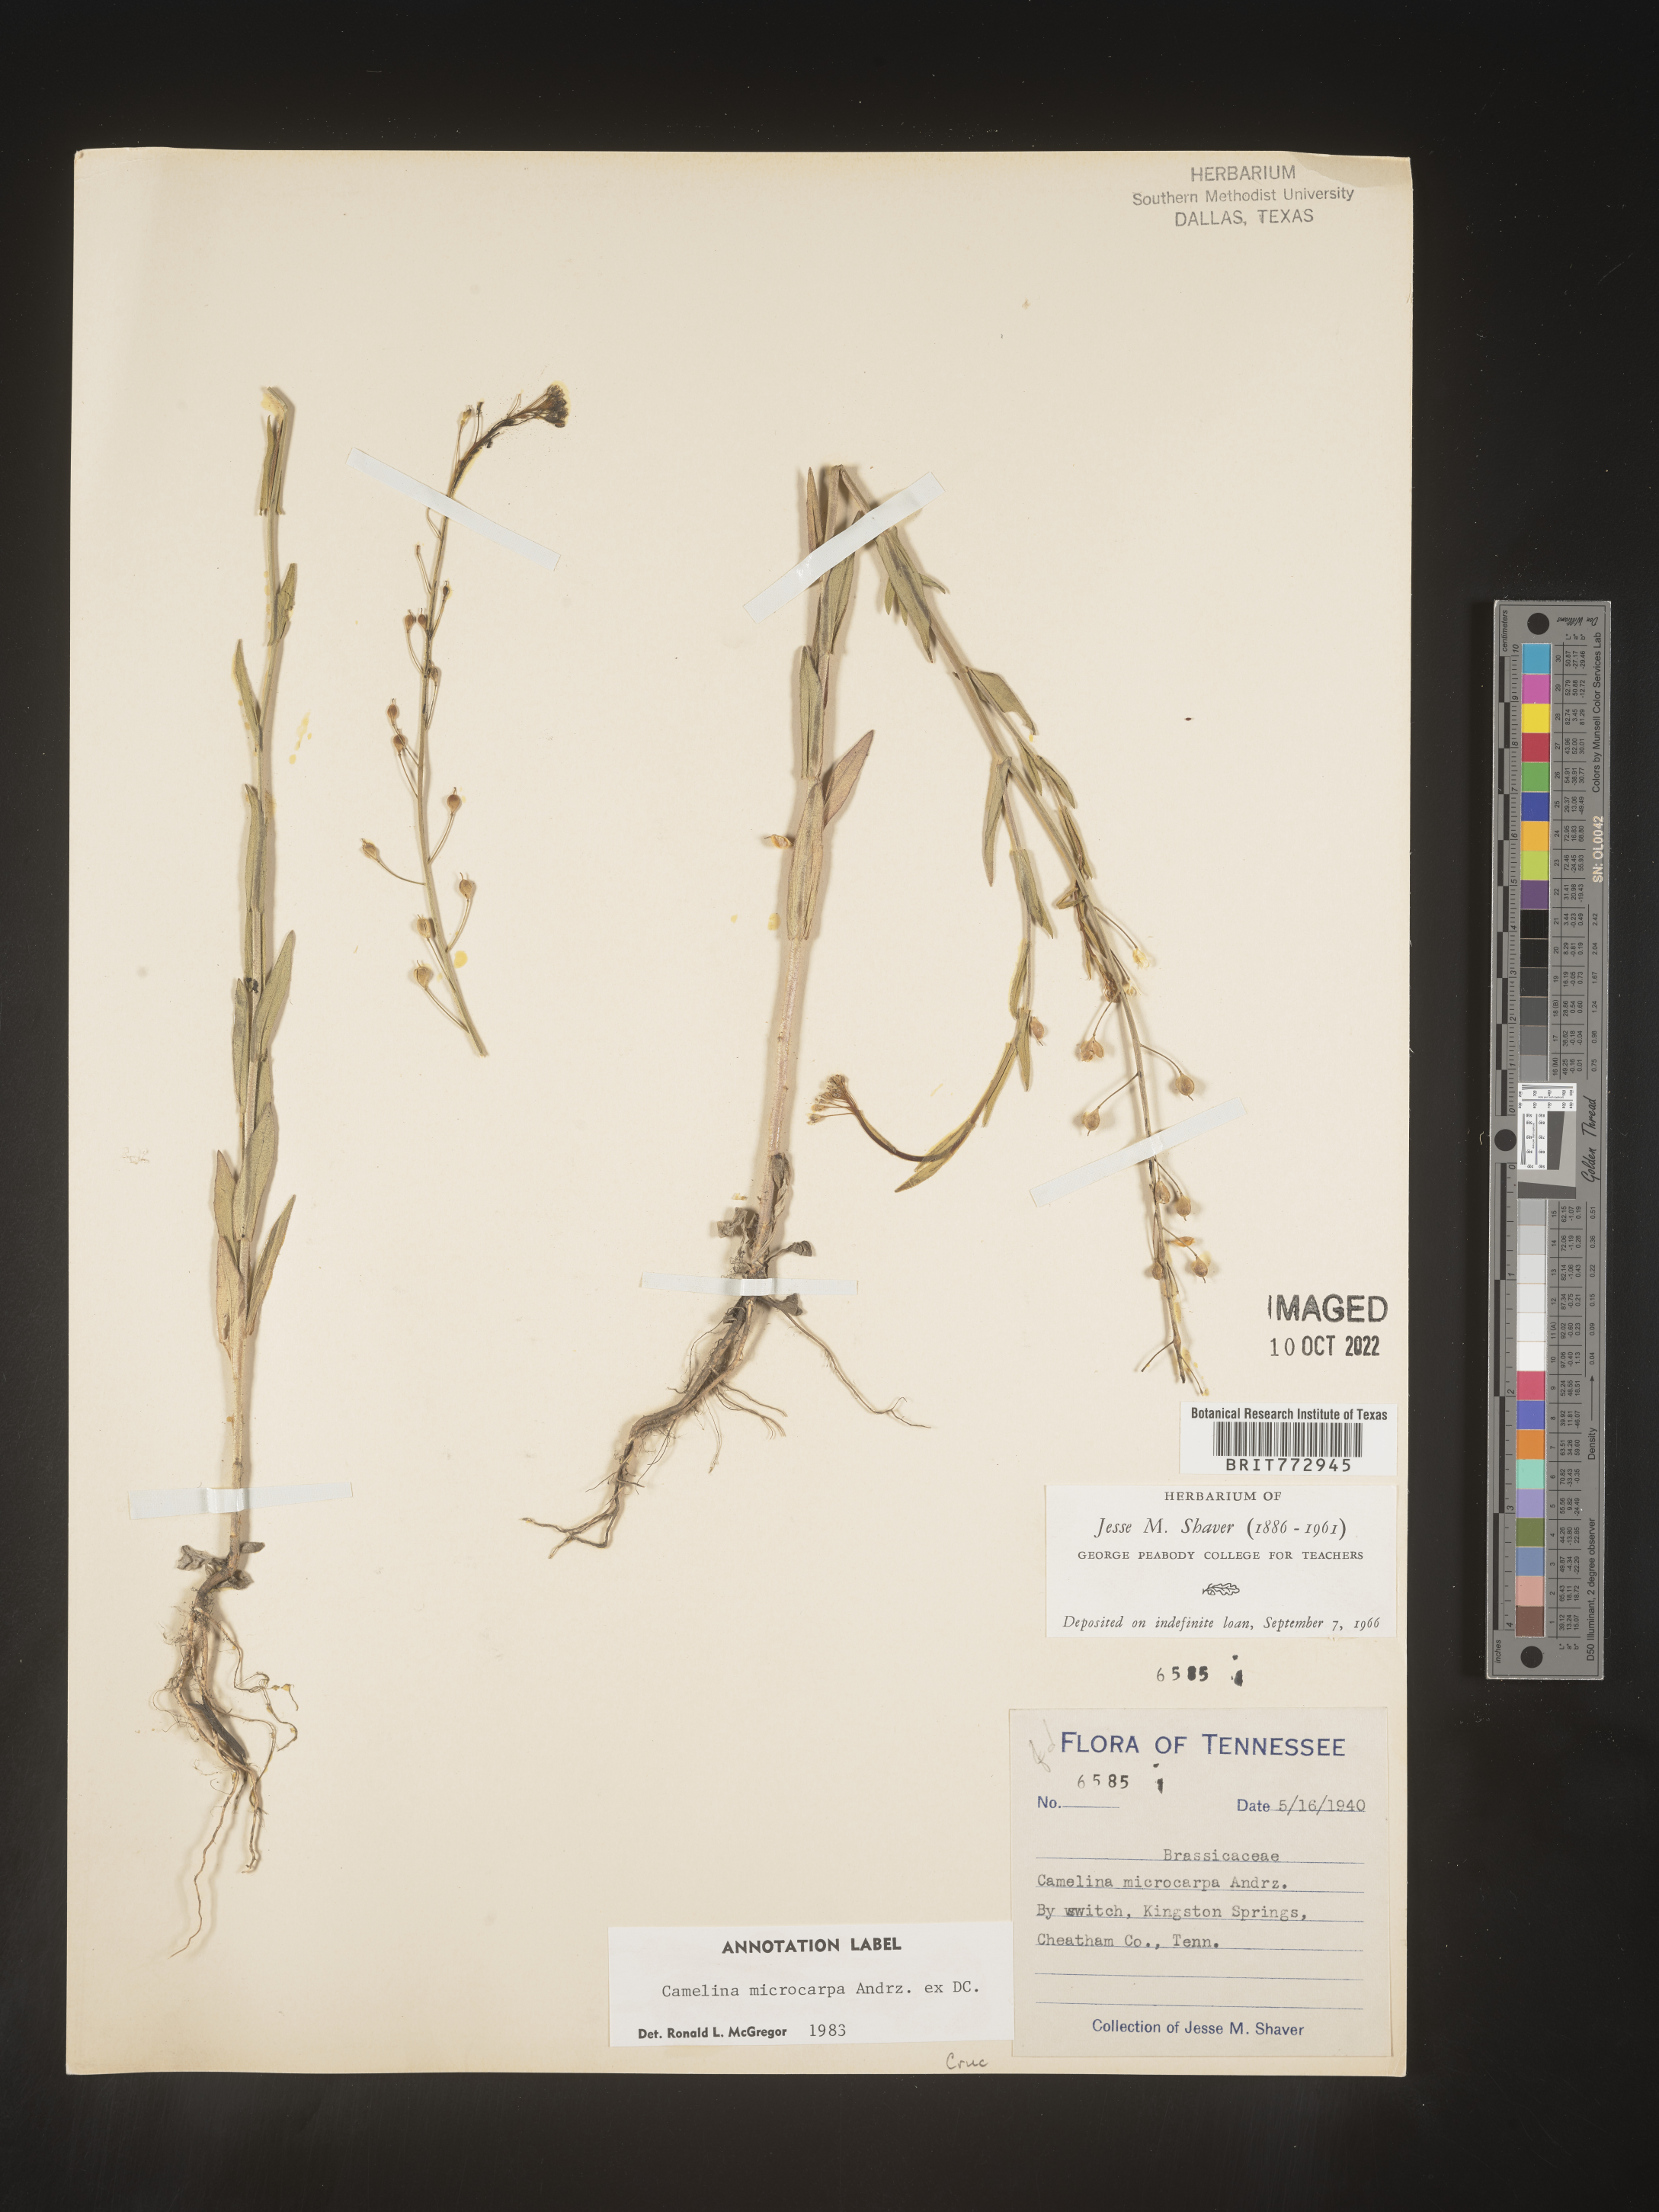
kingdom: Plantae
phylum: Tracheophyta
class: Magnoliopsida
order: Brassicales
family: Brassicaceae
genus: Camelina
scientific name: Camelina microcarpa
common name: Lesser gold-of-pleasure
